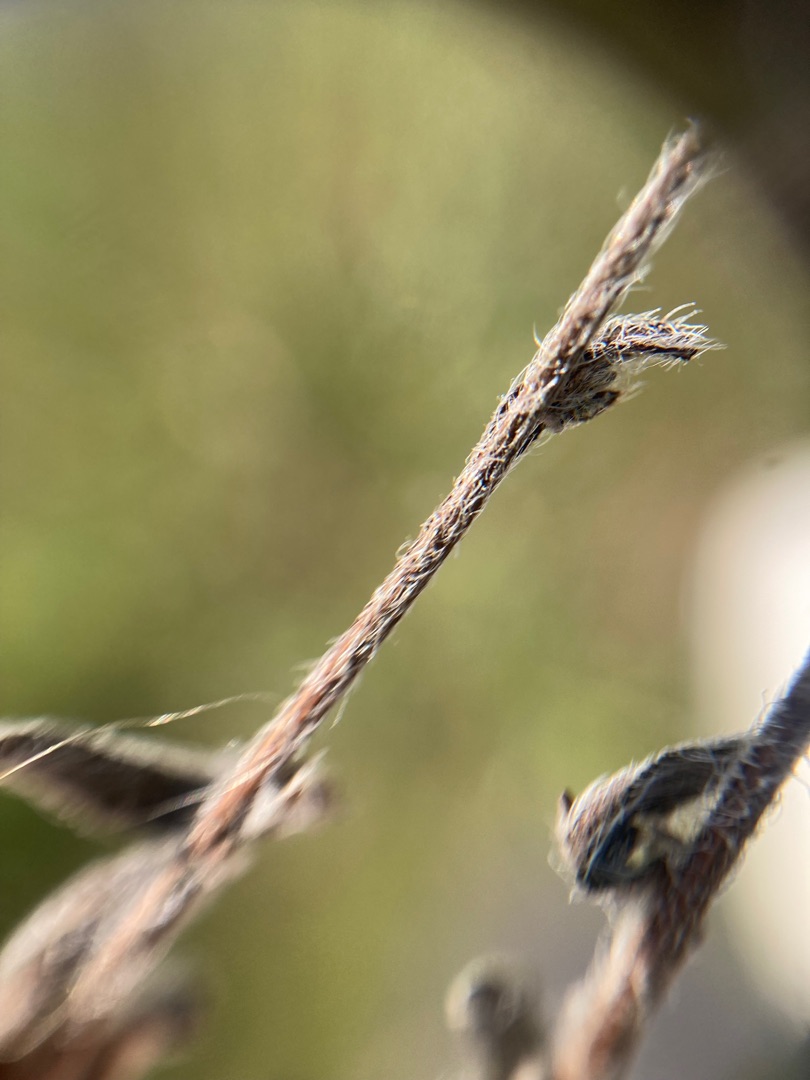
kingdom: Plantae
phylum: Tracheophyta
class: Magnoliopsida
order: Boraginales
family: Boraginaceae
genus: Myosotis
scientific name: Myosotis discolor
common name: Forskelligfarvet forglemmigej
